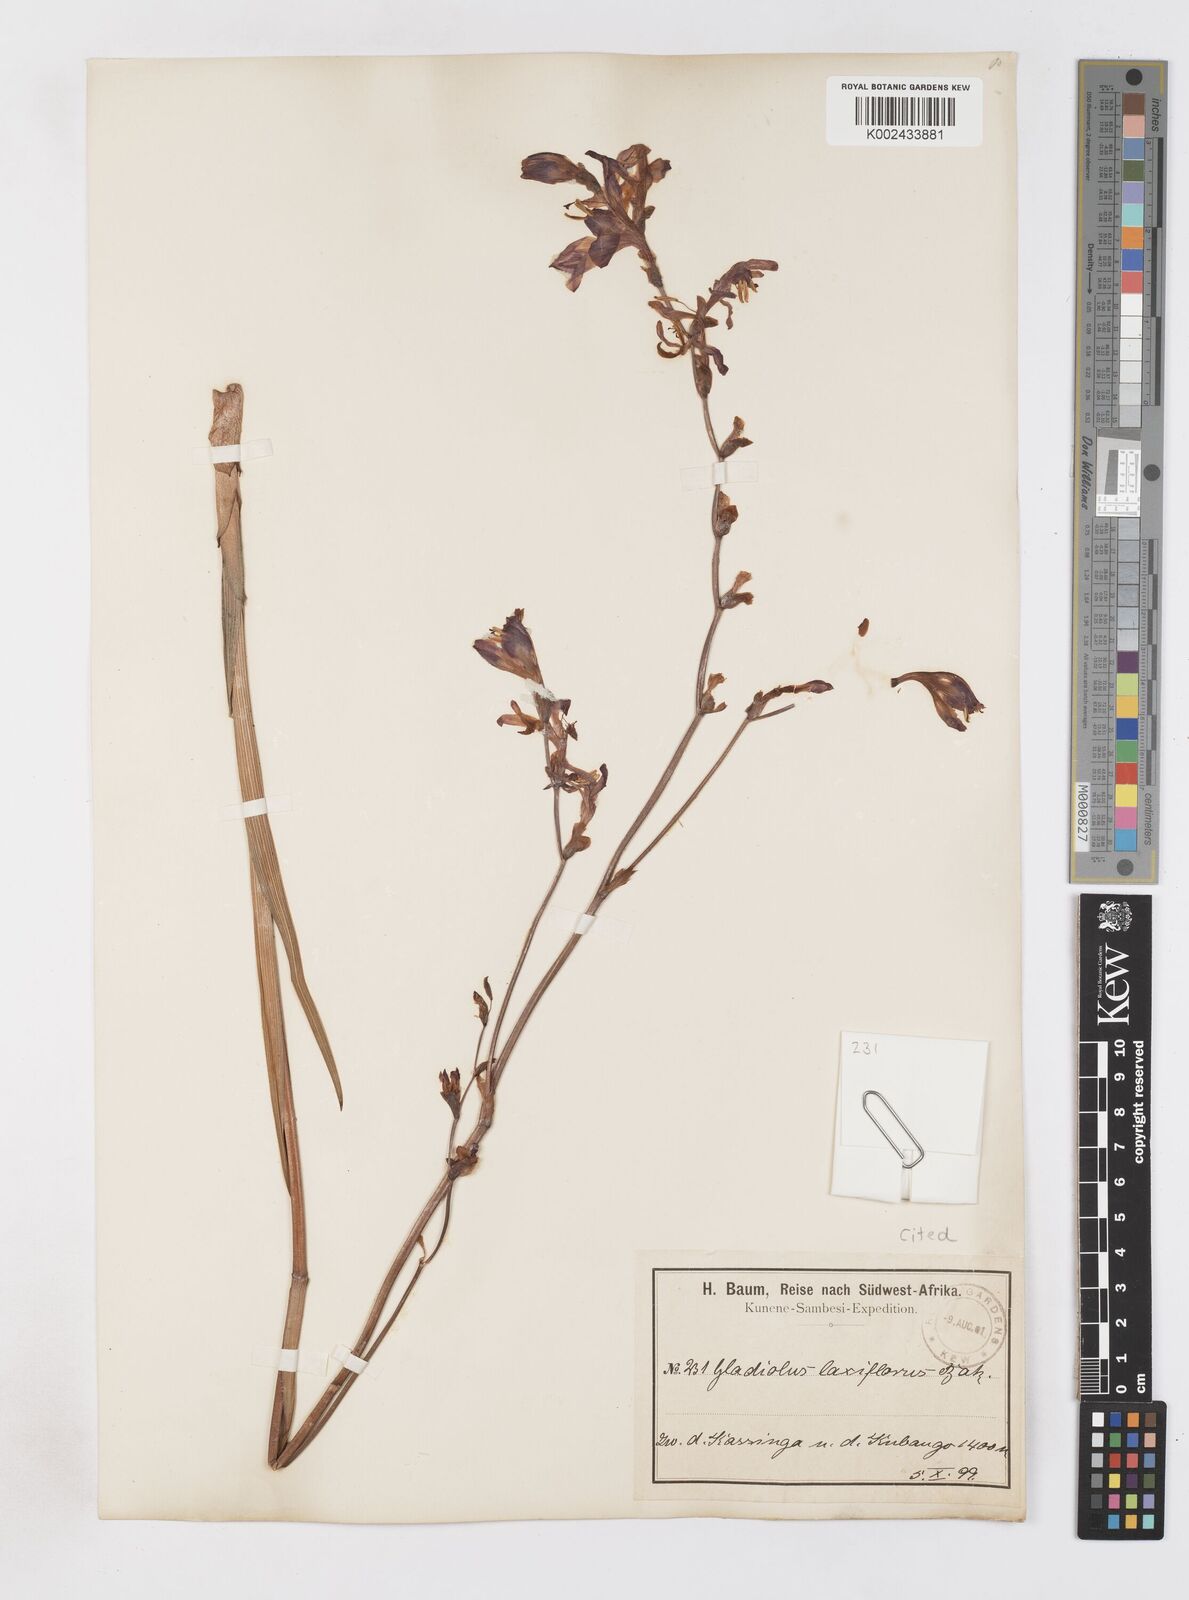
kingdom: Plantae
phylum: Tracheophyta
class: Liliopsida
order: Asparagales
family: Iridaceae
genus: Gladiolus
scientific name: Gladiolus laxiflorus
